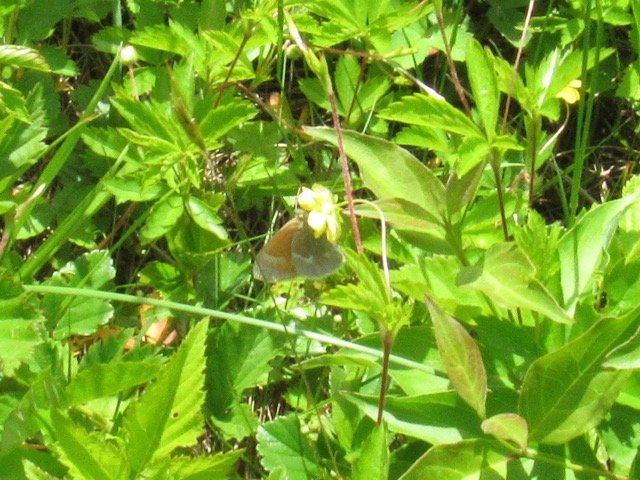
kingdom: Animalia
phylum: Arthropoda
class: Insecta
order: Lepidoptera
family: Nymphalidae
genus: Coenonympha
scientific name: Coenonympha tullia
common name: Large Heath
